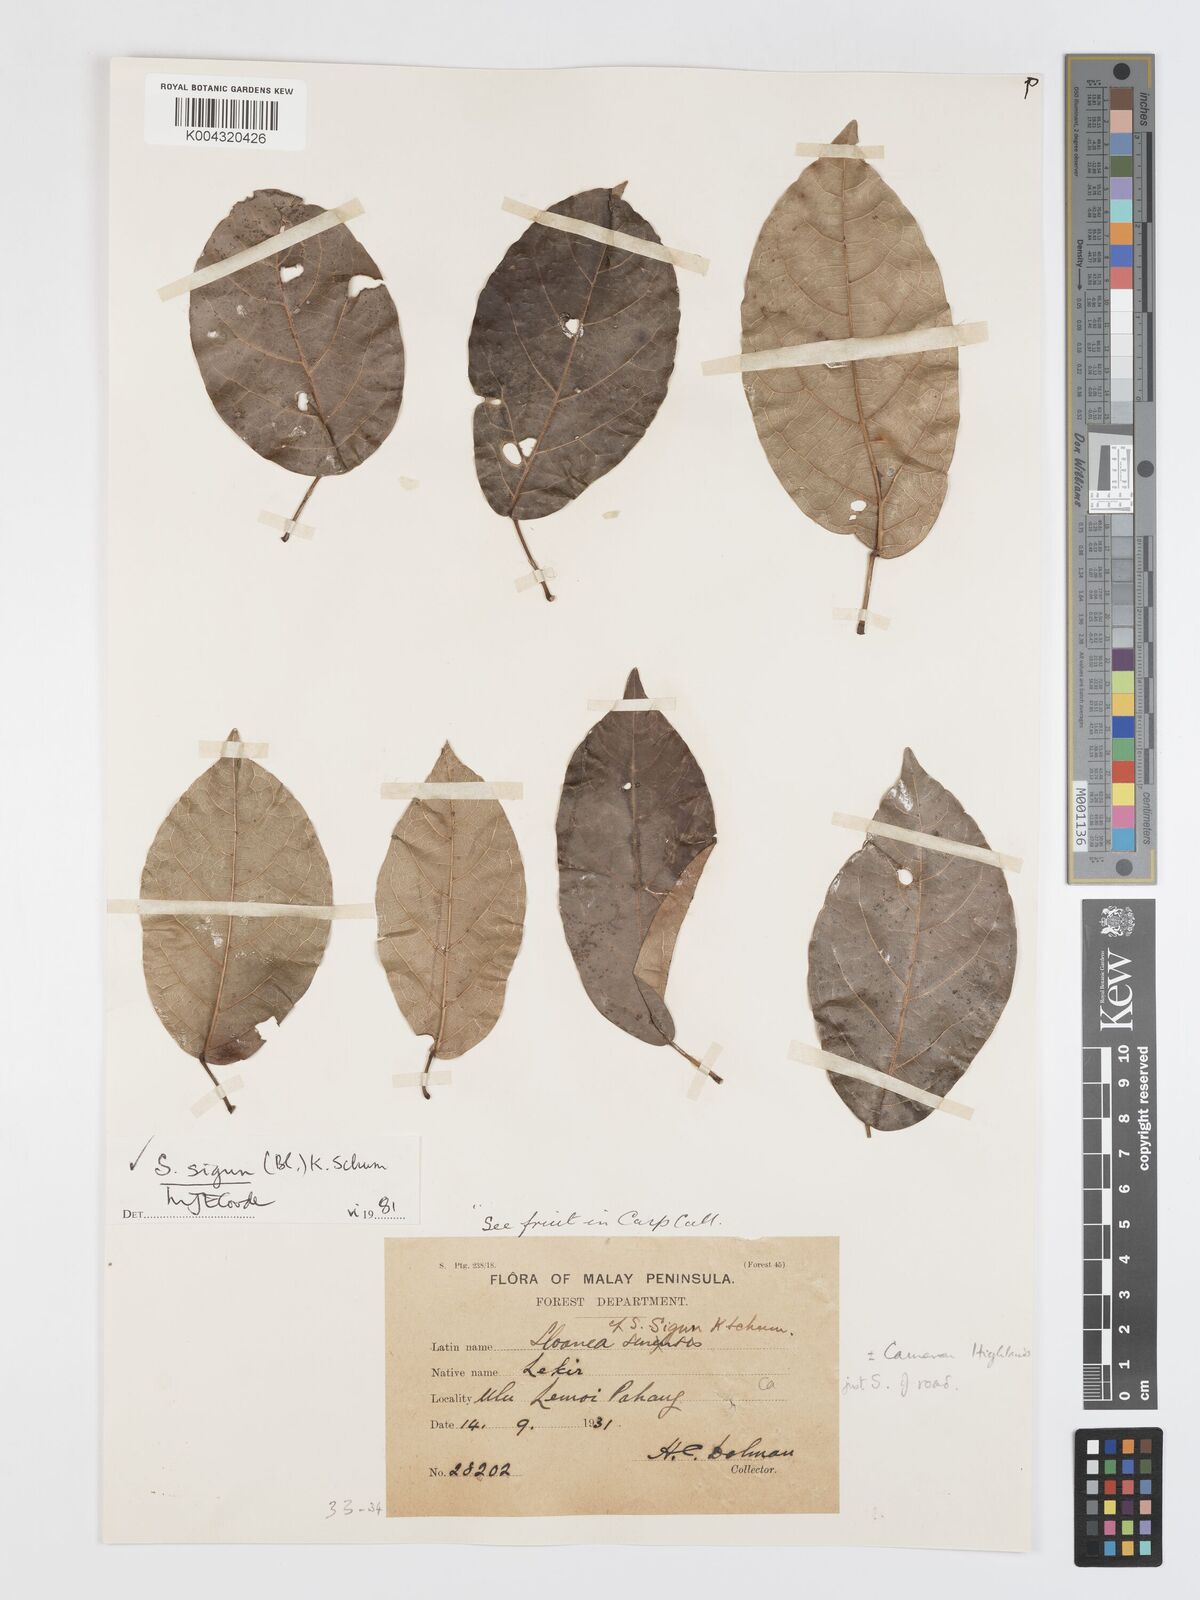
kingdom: Plantae
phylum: Tracheophyta
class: Magnoliopsida
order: Oxalidales
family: Elaeocarpaceae
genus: Sloanea
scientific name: Sloanea sigun
